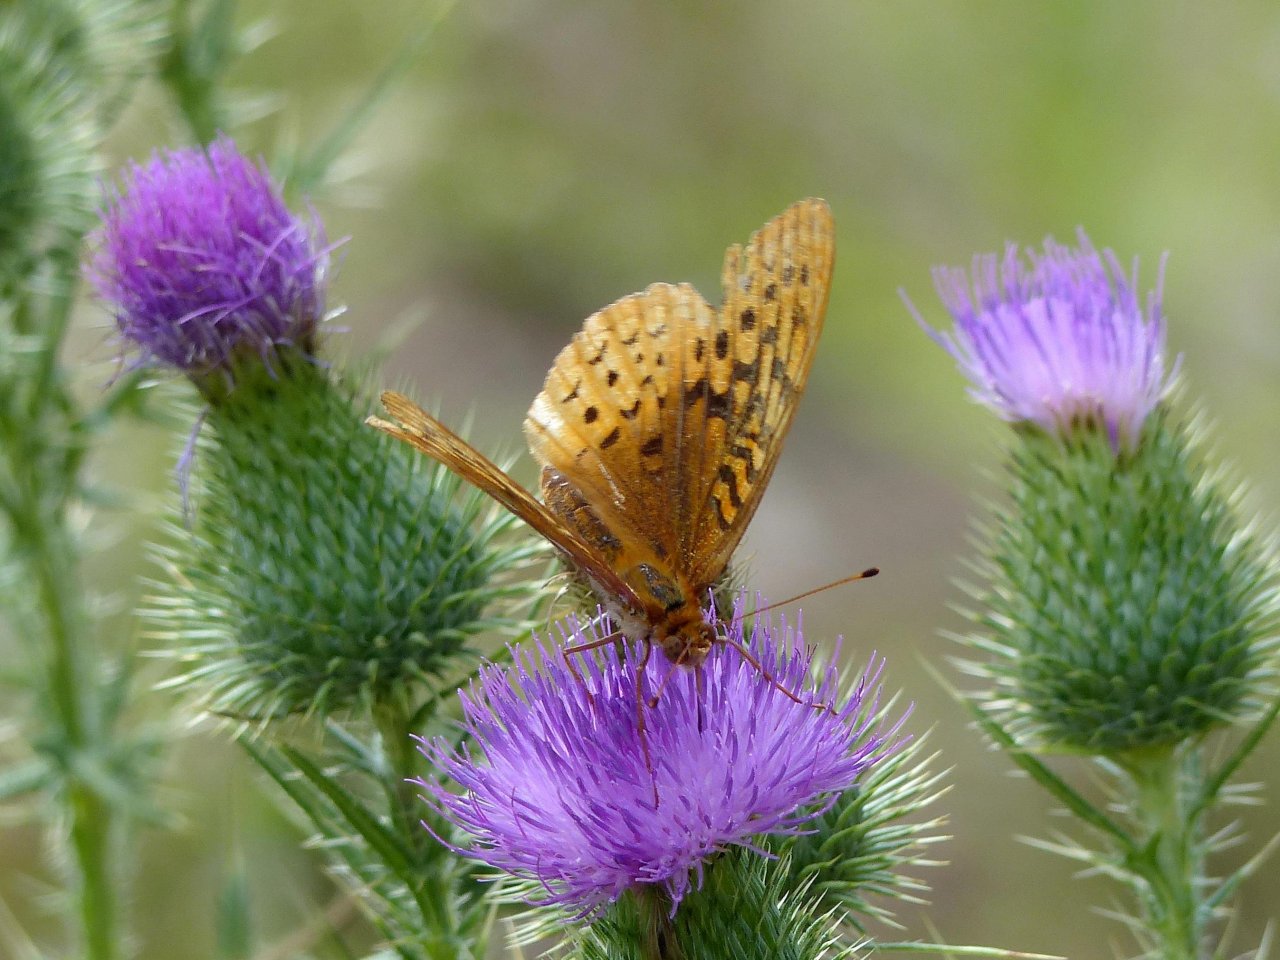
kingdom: Animalia
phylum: Arthropoda
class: Insecta
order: Lepidoptera
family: Nymphalidae
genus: Speyeria
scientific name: Speyeria cybele
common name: Great Spangled Fritillary
